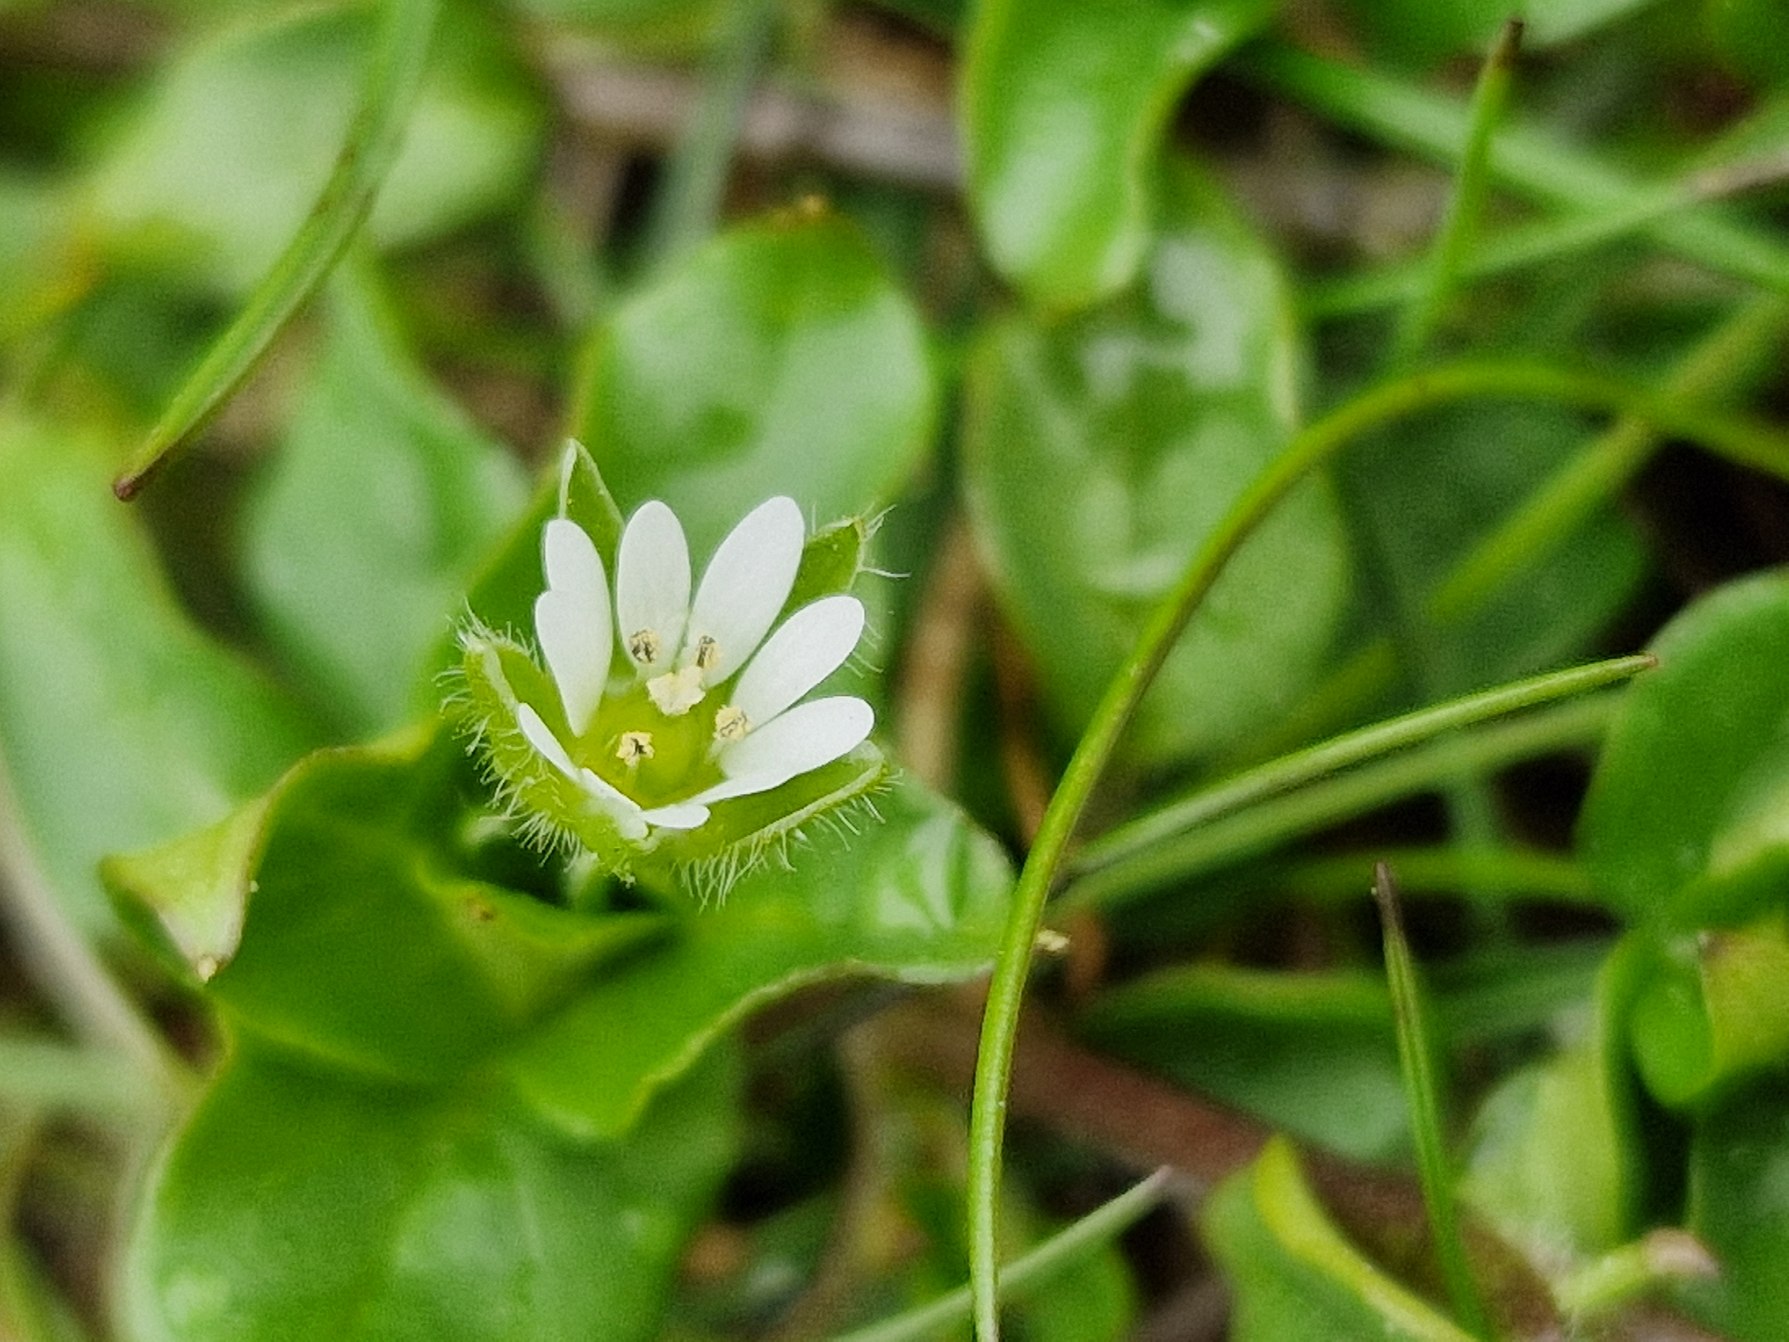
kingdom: Plantae
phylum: Tracheophyta
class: Magnoliopsida
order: Caryophyllales
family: Caryophyllaceae
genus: Stellaria
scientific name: Stellaria media
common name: Almindelig fuglegræs
